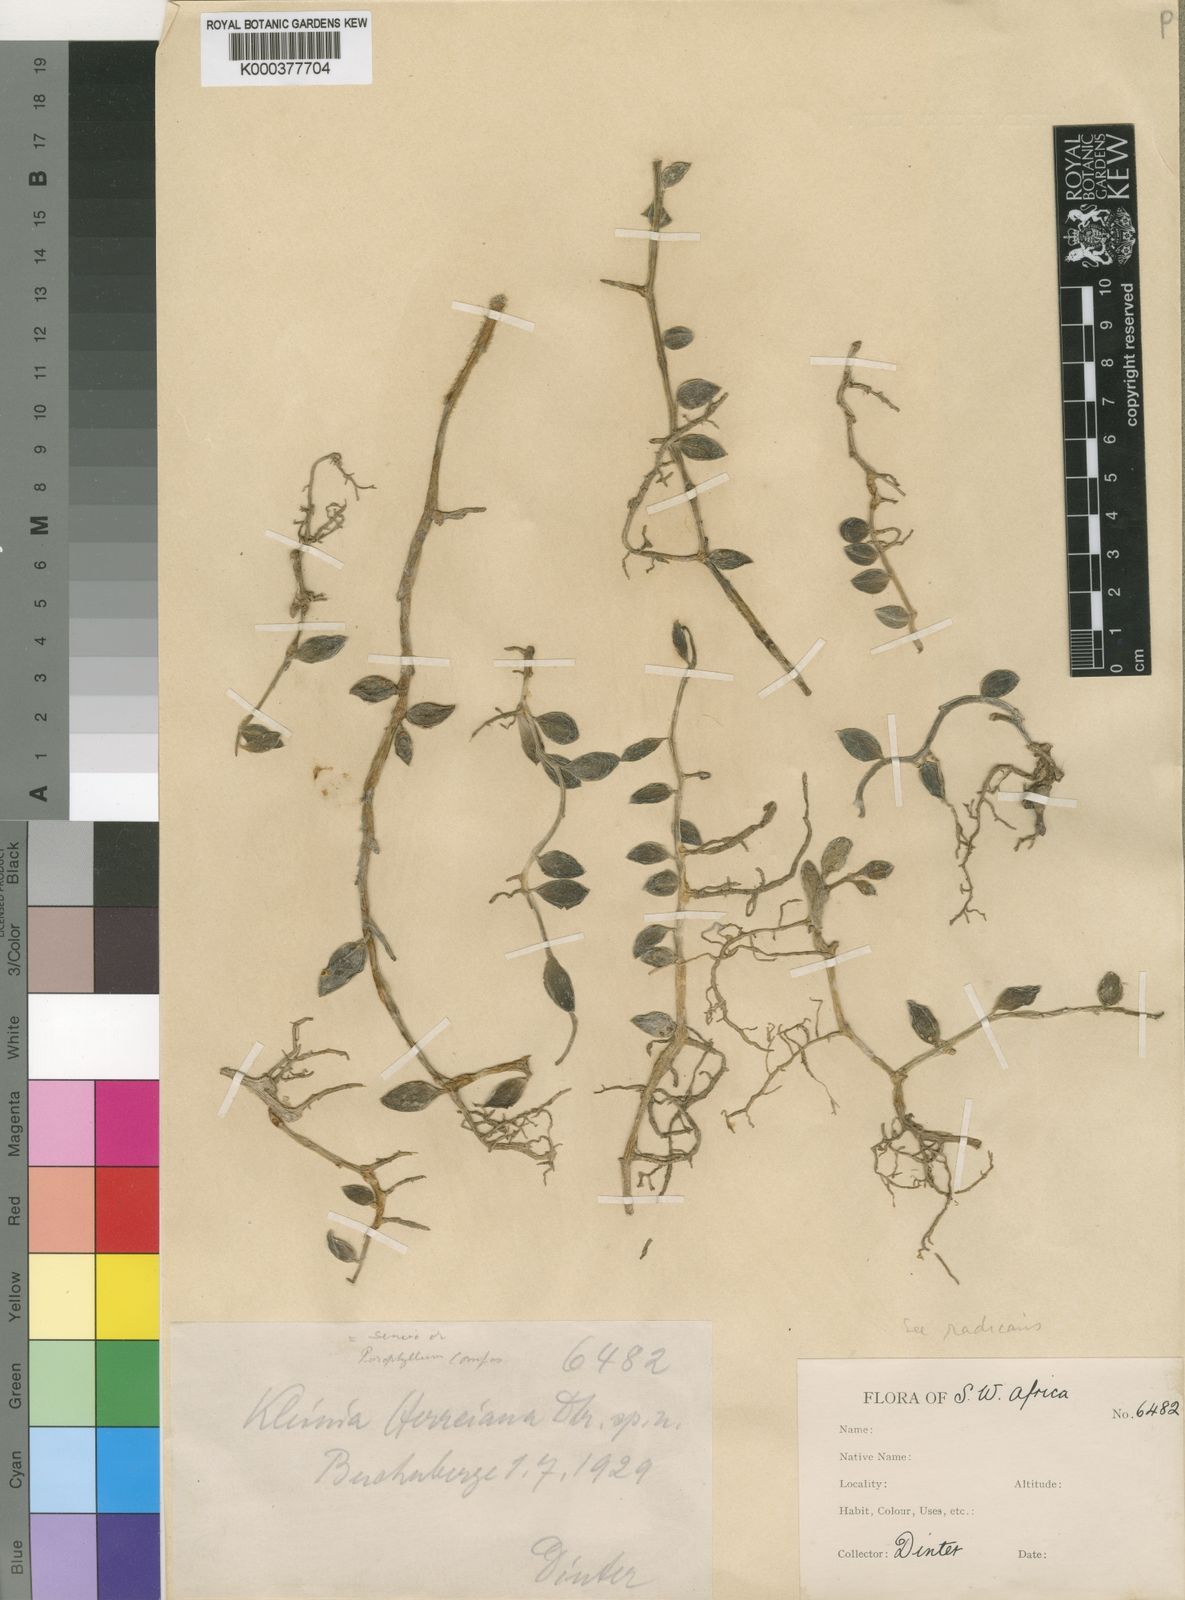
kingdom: Plantae
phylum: Tracheophyta
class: Magnoliopsida
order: Asterales
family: Asteraceae
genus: Curio
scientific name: Curio herreanus
